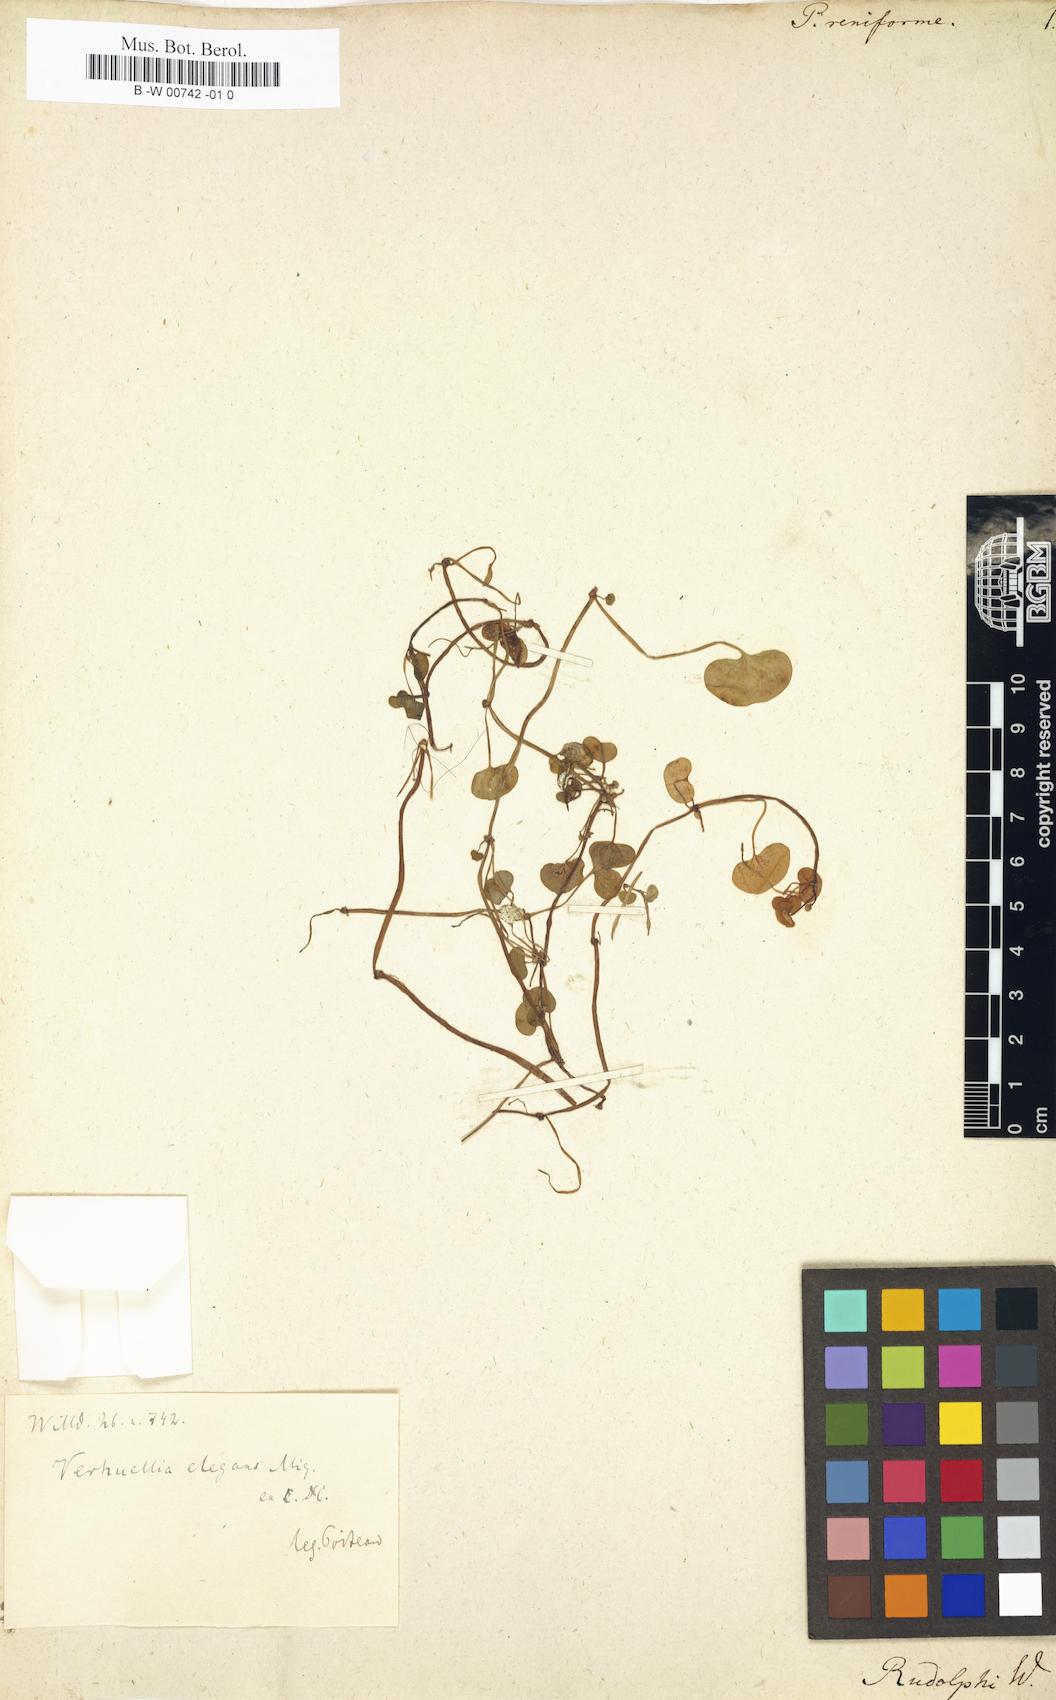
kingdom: Plantae
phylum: Tracheophyta
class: Magnoliopsida
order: Piperales
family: Piperaceae
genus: Verhuellia
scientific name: Verhuellia lunaria
